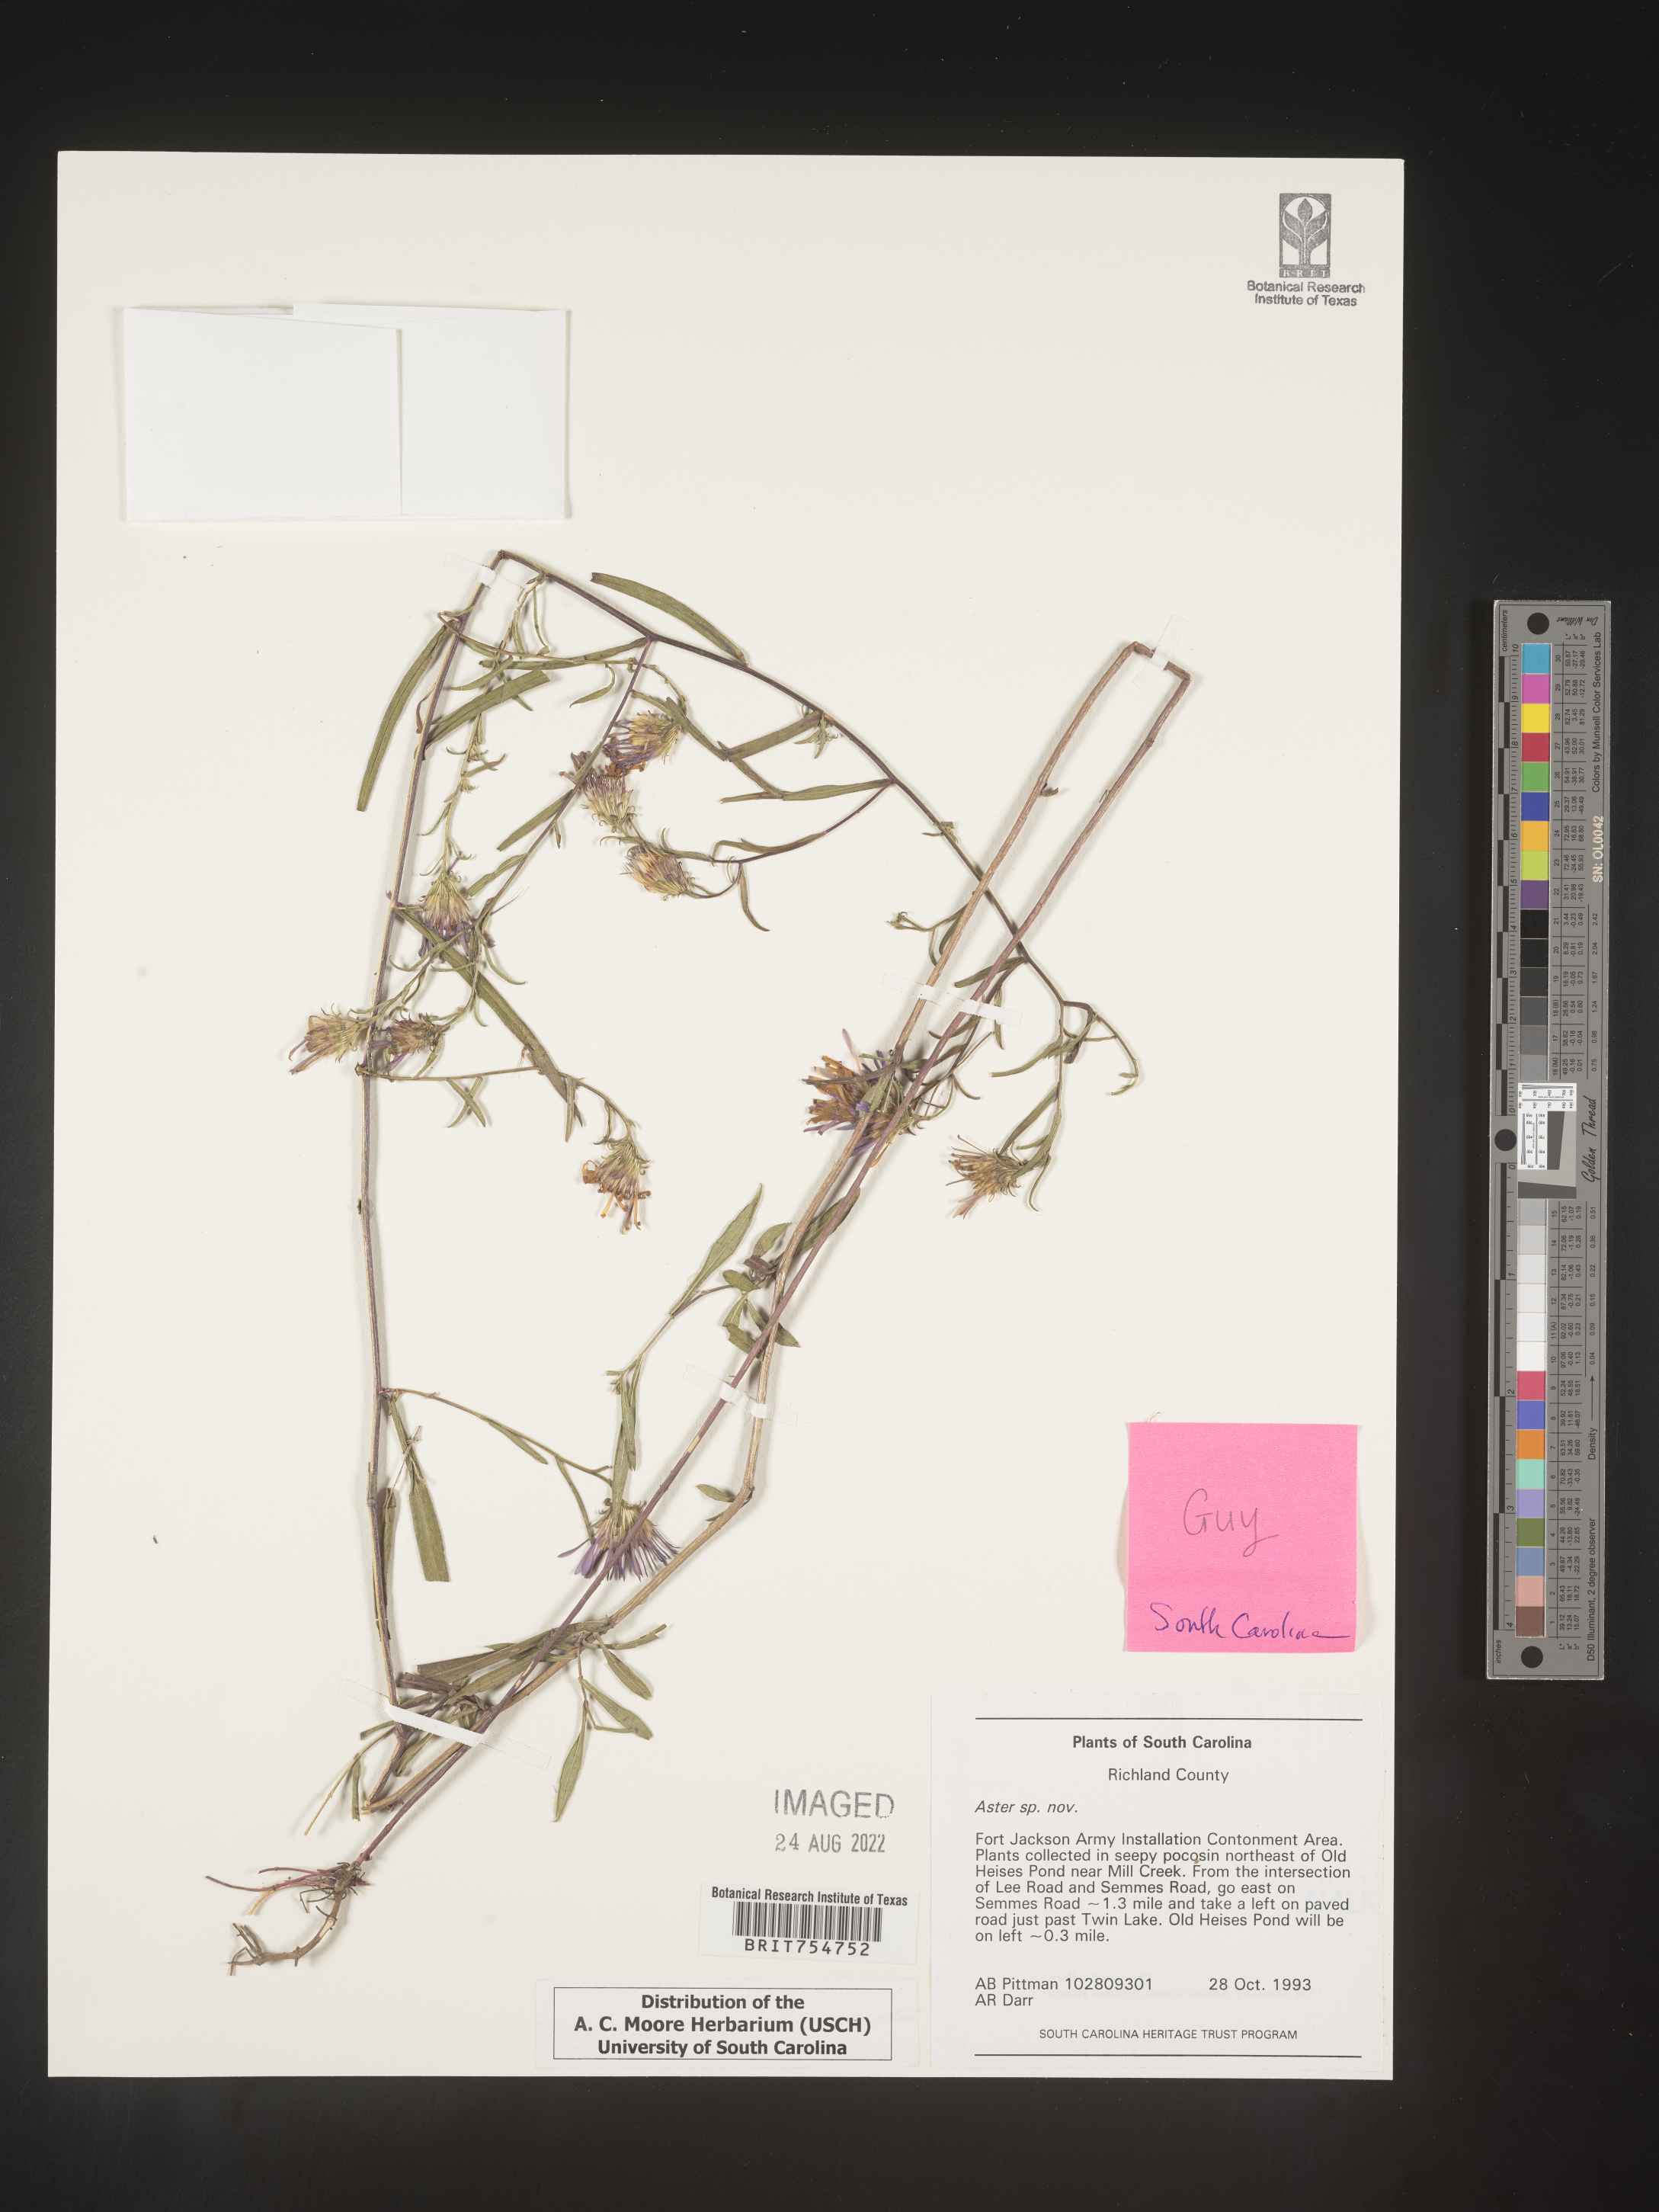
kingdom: Plantae
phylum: Tracheophyta
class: Magnoliopsida
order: Asterales
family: Asteraceae
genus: Symphyotrichum
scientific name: Symphyotrichum
